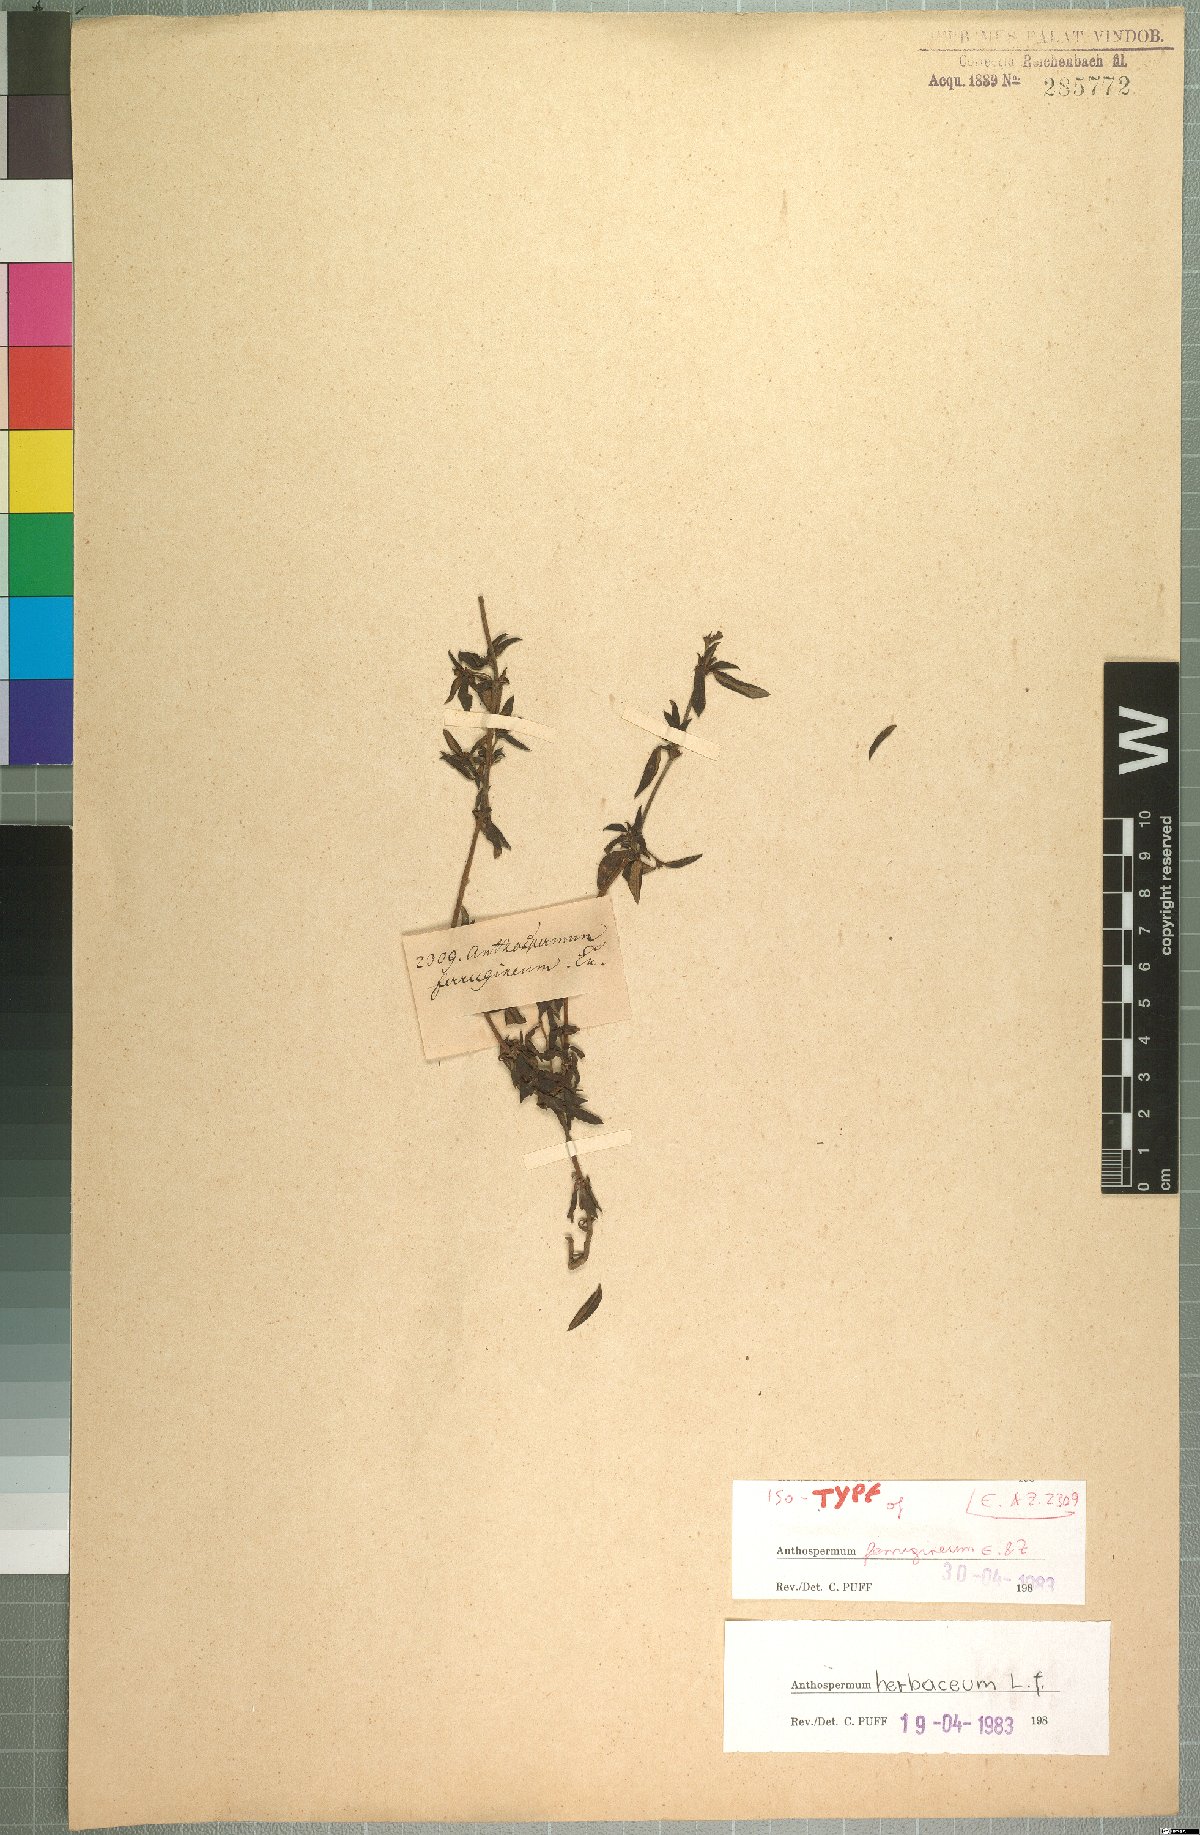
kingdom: Plantae
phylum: Tracheophyta
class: Magnoliopsida
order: Gentianales
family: Rubiaceae
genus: Anthospermum
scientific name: Anthospermum herbaceum
